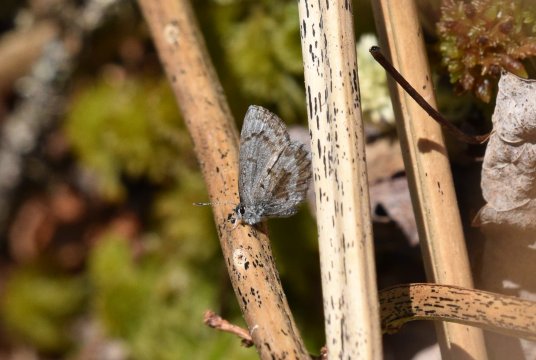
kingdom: Animalia
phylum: Arthropoda
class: Insecta
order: Lepidoptera
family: Lycaenidae
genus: Celastrina
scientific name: Celastrina lucia
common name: Northern Spring Azure
